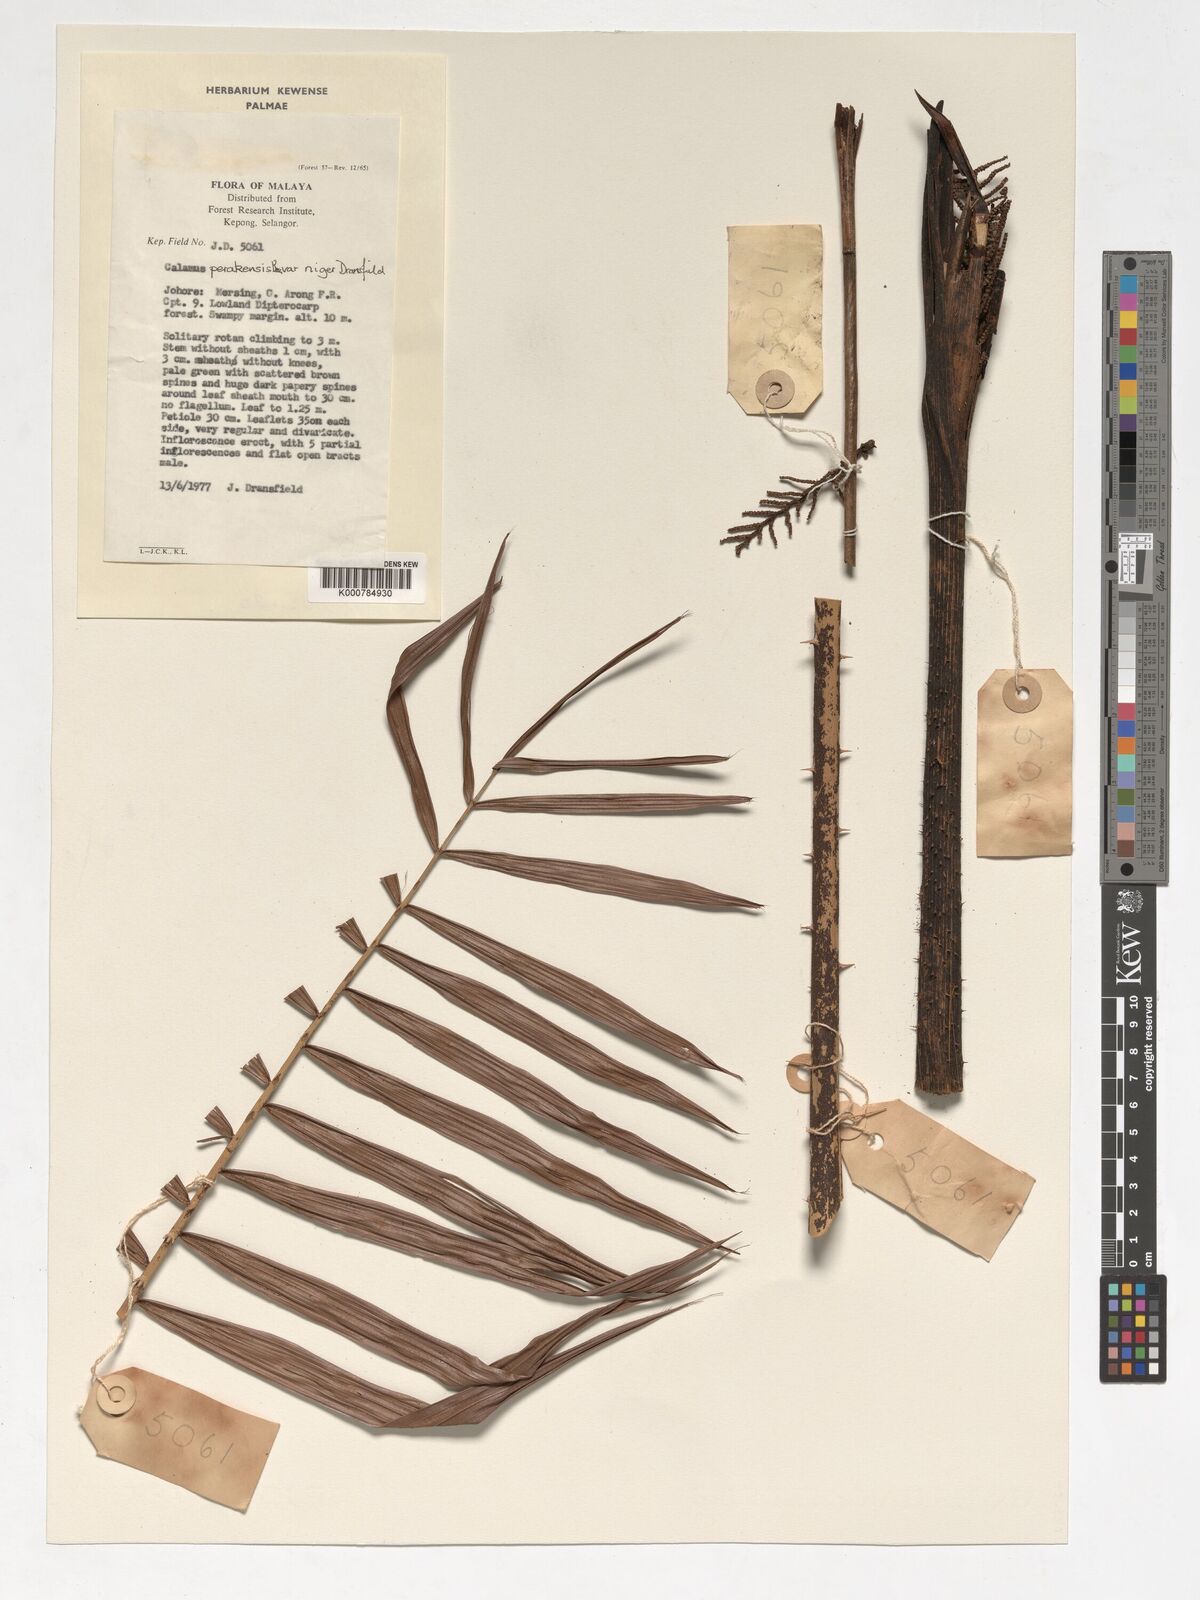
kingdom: Plantae
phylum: Tracheophyta
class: Liliopsida
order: Arecales
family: Arecaceae
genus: Calamus
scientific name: Calamus perakensis
